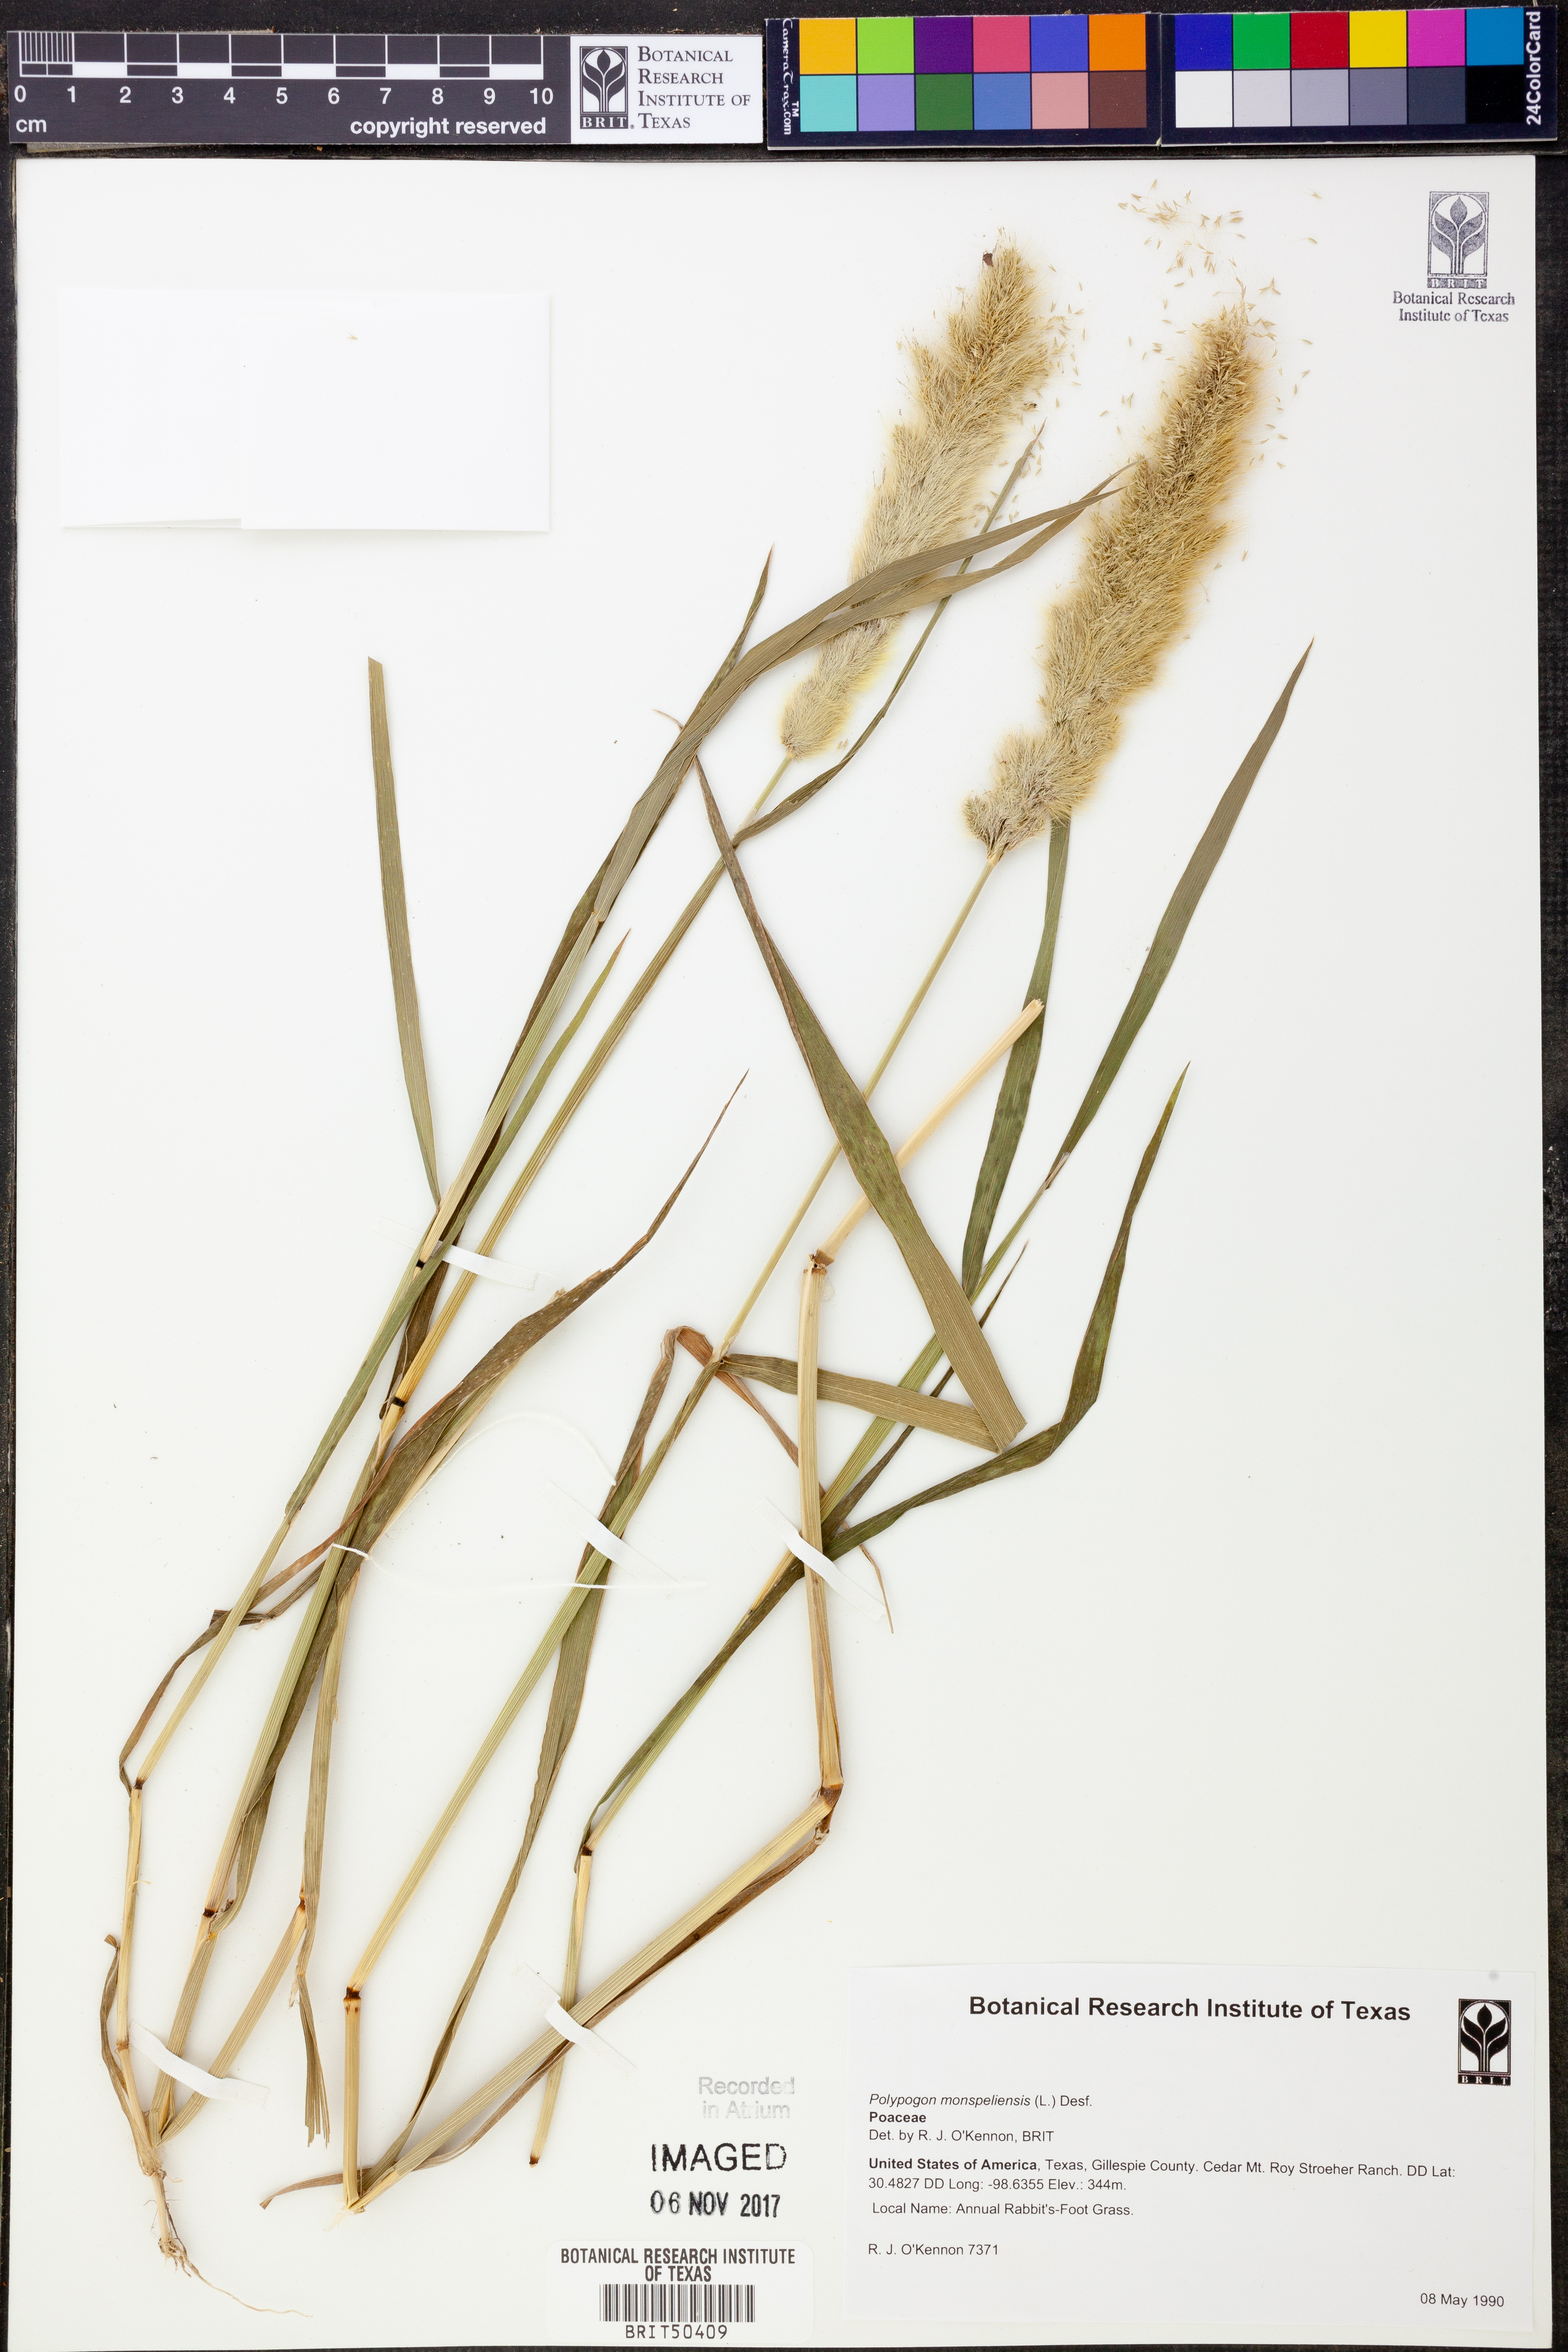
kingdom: Plantae
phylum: Tracheophyta
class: Liliopsida
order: Poales
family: Poaceae
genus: Polypogon
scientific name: Polypogon monspeliensis
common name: Annual rabbitsfoot grass
